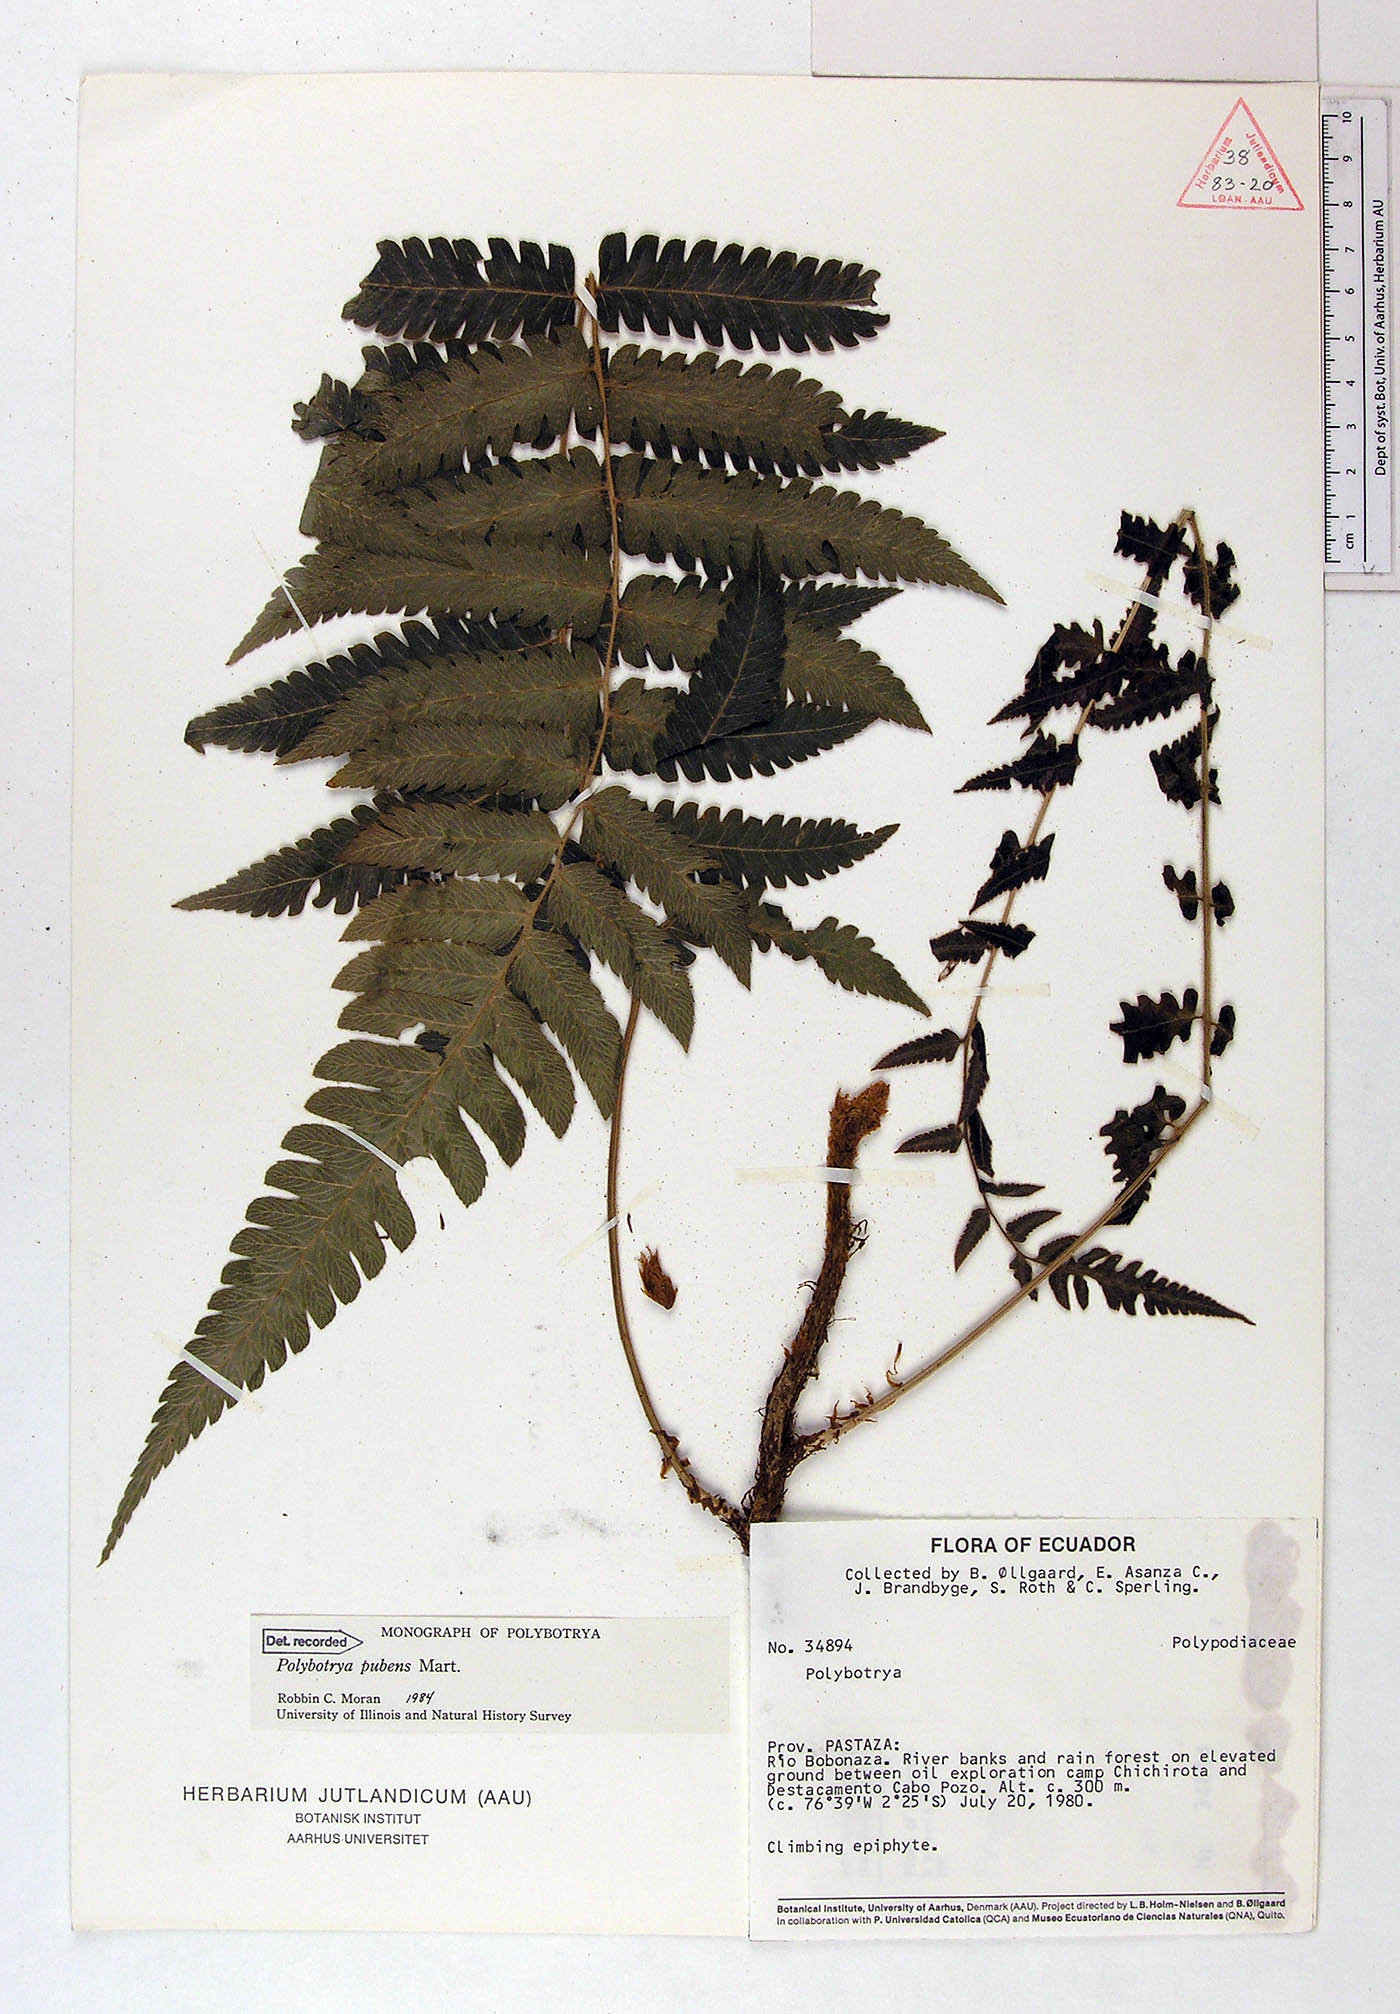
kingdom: Plantae
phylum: Tracheophyta
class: Polypodiopsida
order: Polypodiales
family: Dryopteridaceae
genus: Polybotrya
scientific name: Polybotrya pubens
